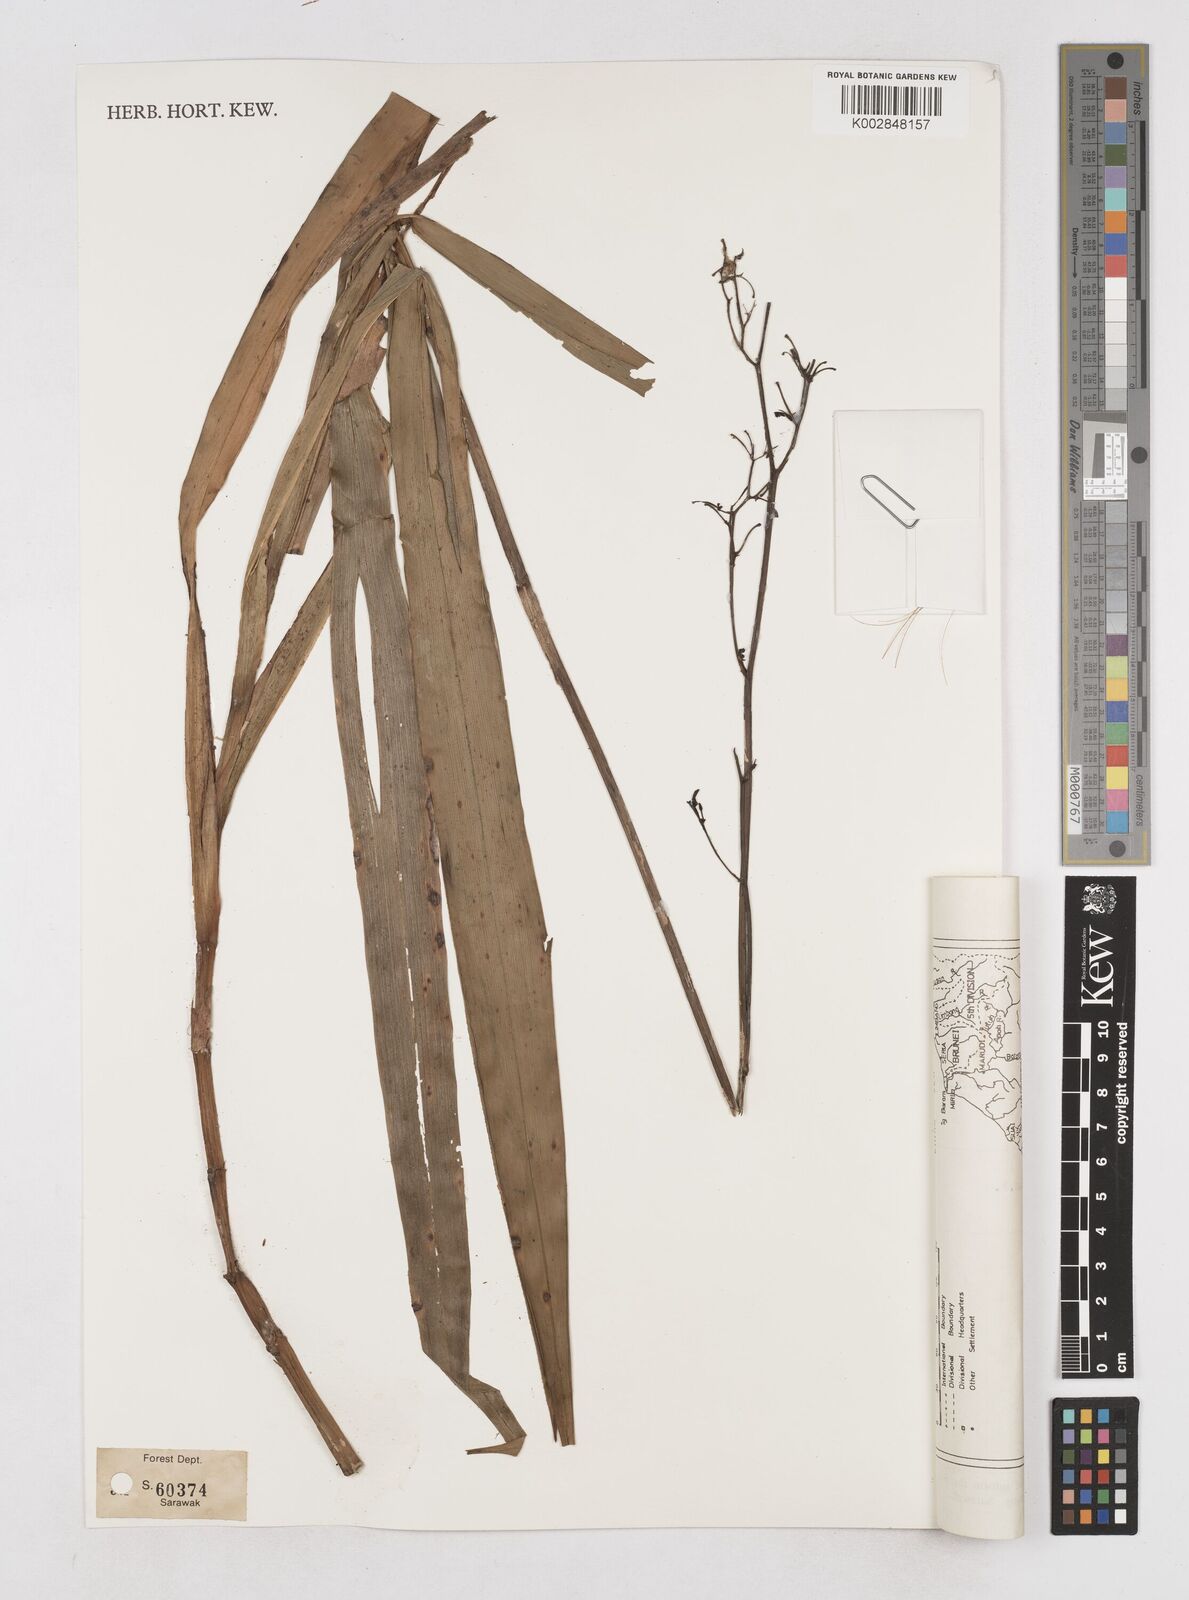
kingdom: Plantae
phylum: Tracheophyta
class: Liliopsida
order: Asparagales
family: Asphodelaceae
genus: Dianella
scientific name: Dianella ensifolia
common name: New zealand lilyplant
